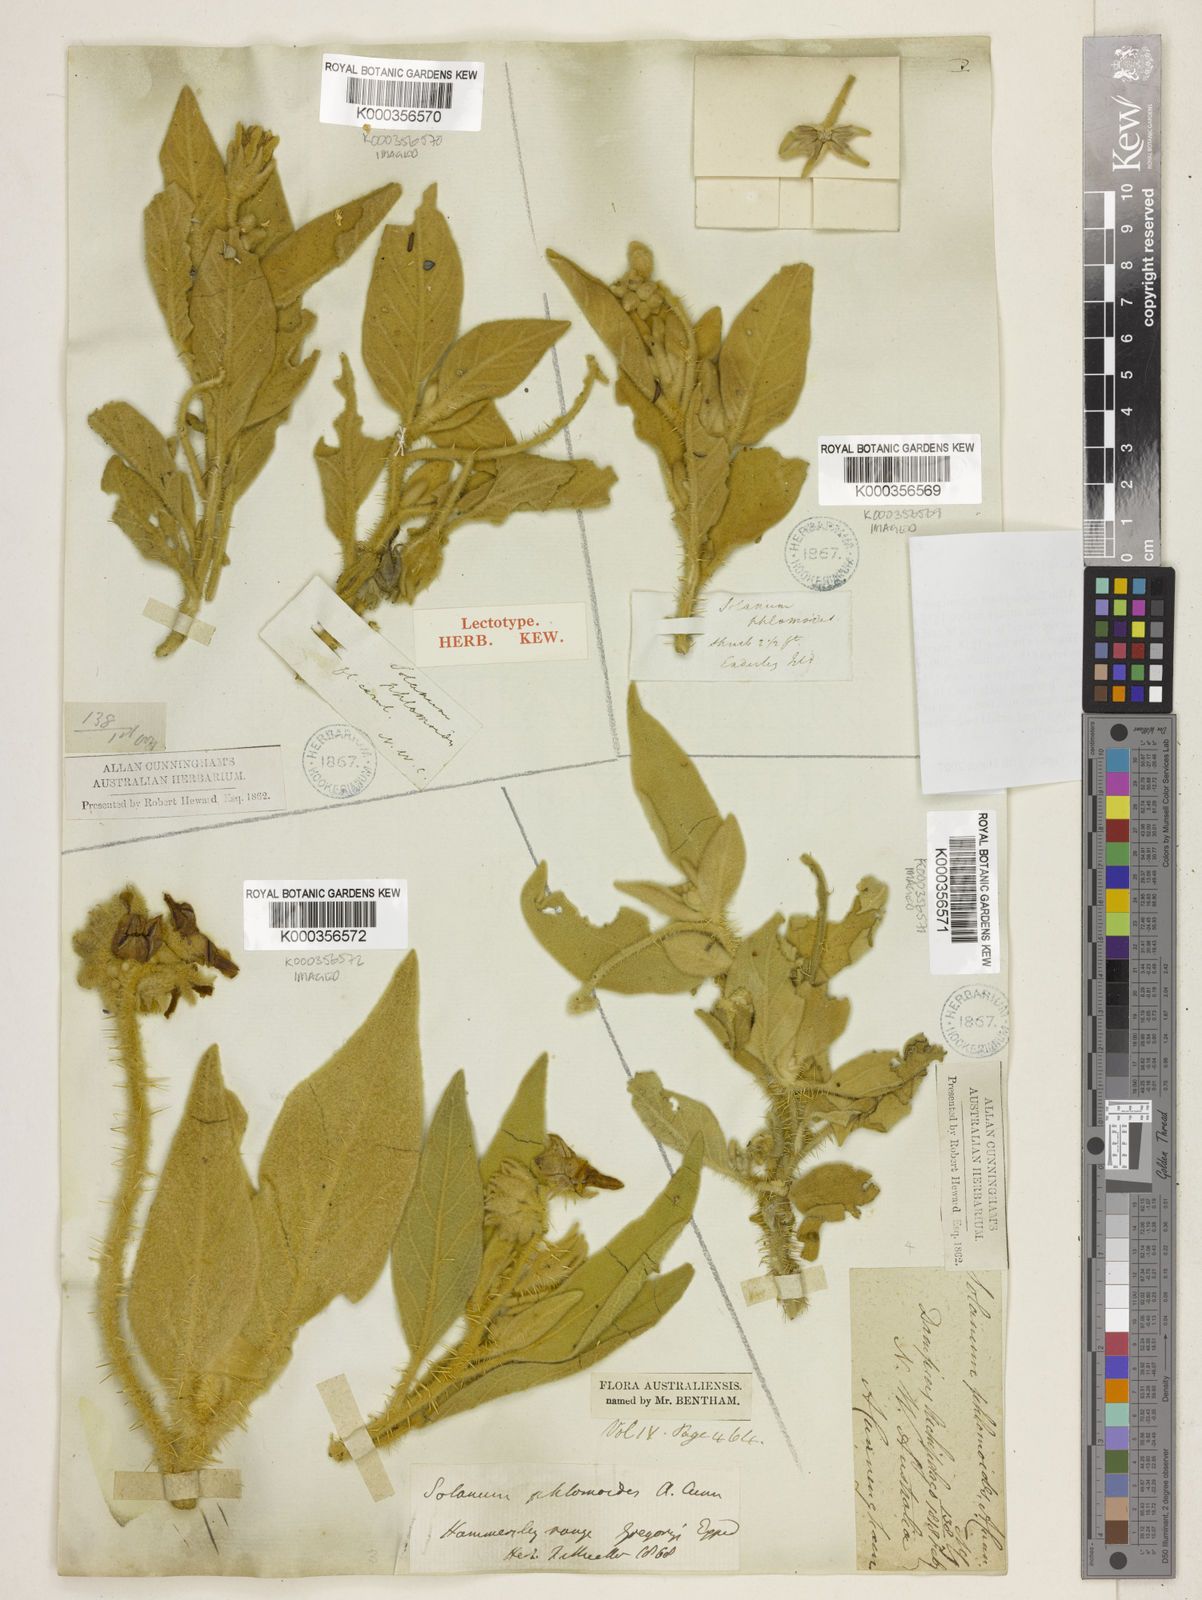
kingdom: Plantae
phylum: Tracheophyta
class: Magnoliopsida
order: Solanales
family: Solanaceae
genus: Solanum
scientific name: Solanum phlomoides
